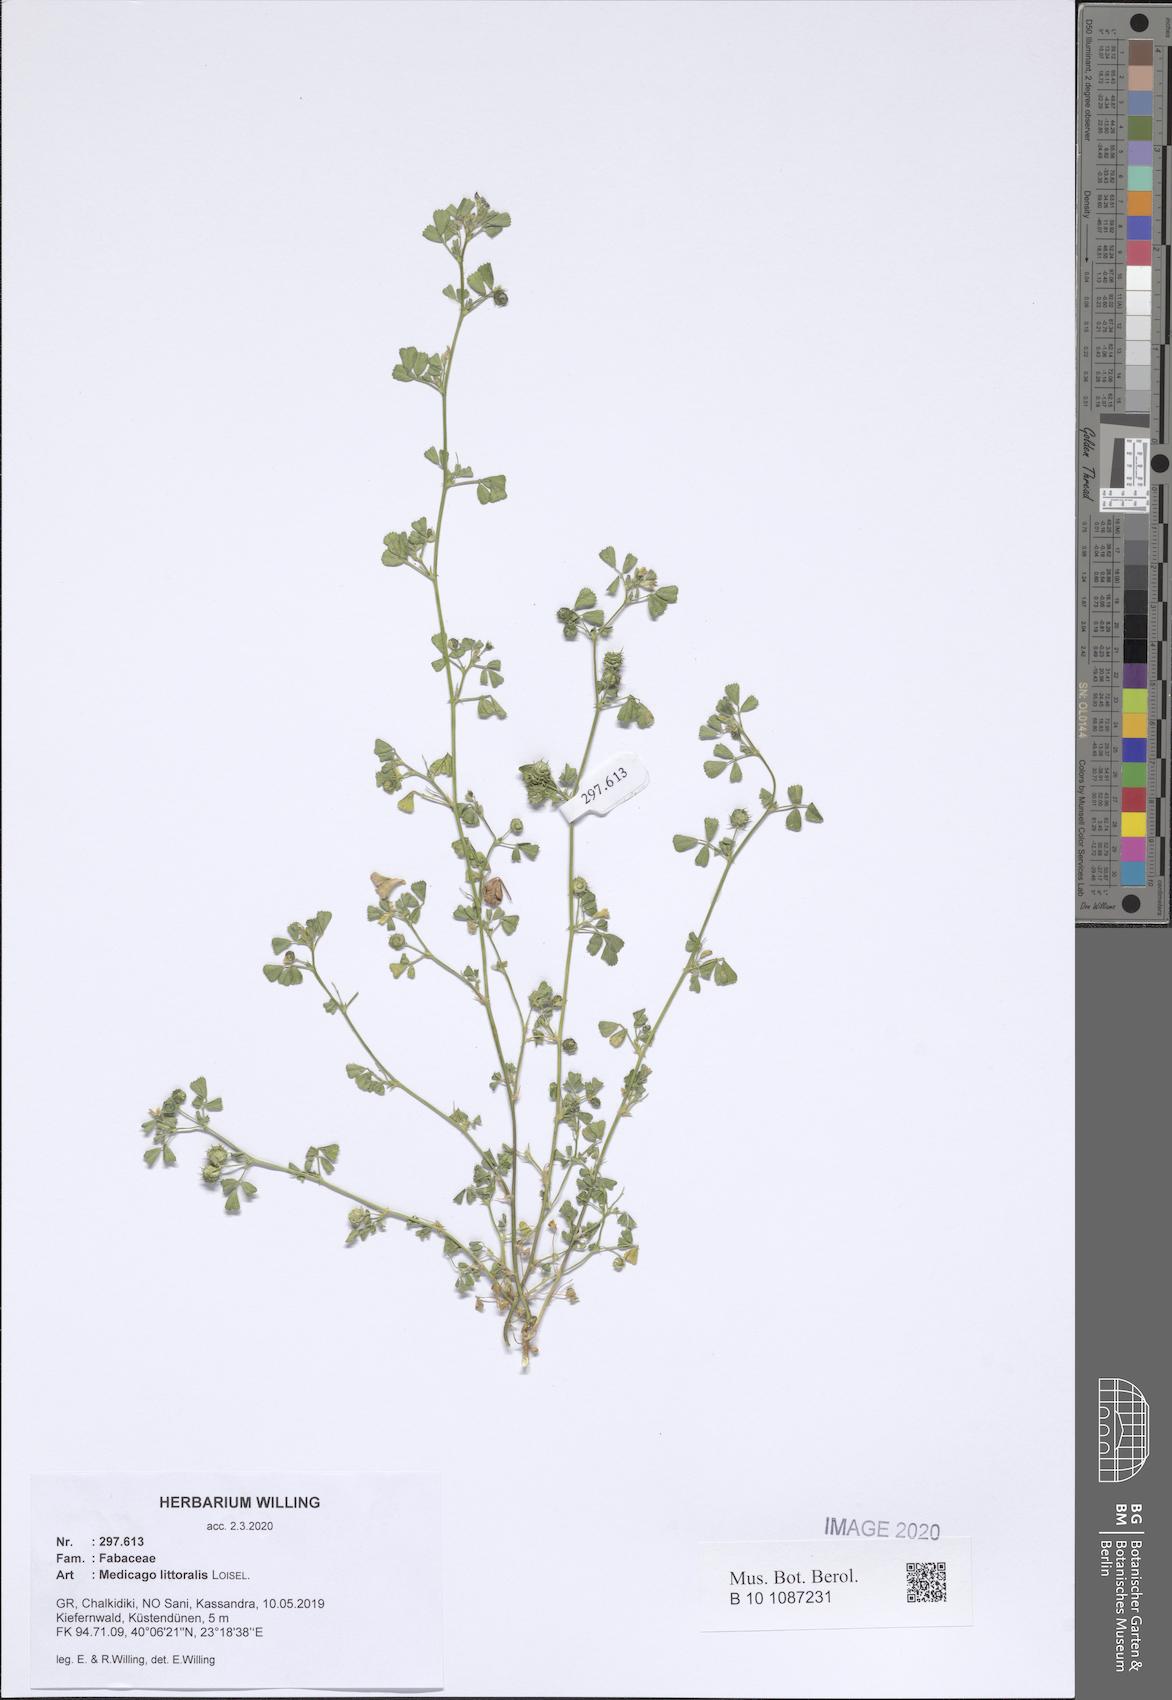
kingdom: Plantae
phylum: Tracheophyta
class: Magnoliopsida
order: Fabales
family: Fabaceae
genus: Medicago
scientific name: Medicago littoralis
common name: Shore medick
